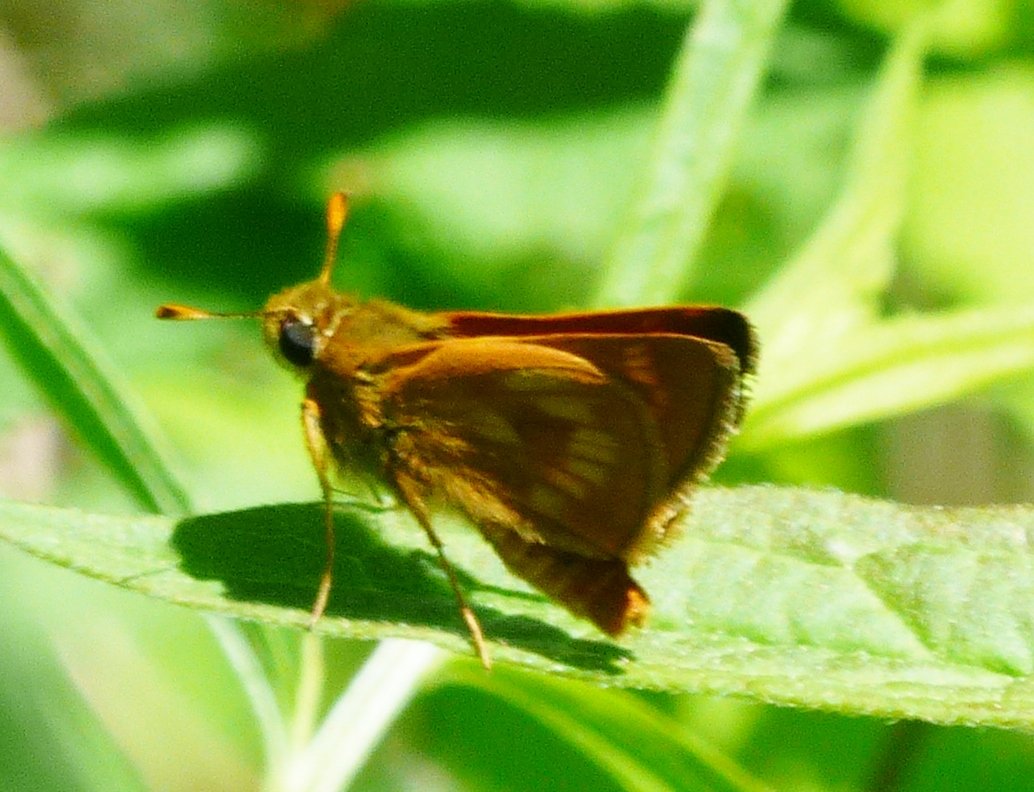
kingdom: Animalia
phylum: Arthropoda
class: Insecta
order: Lepidoptera
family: Hesperiidae
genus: Polites
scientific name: Polites
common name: Long Dash Skipper
